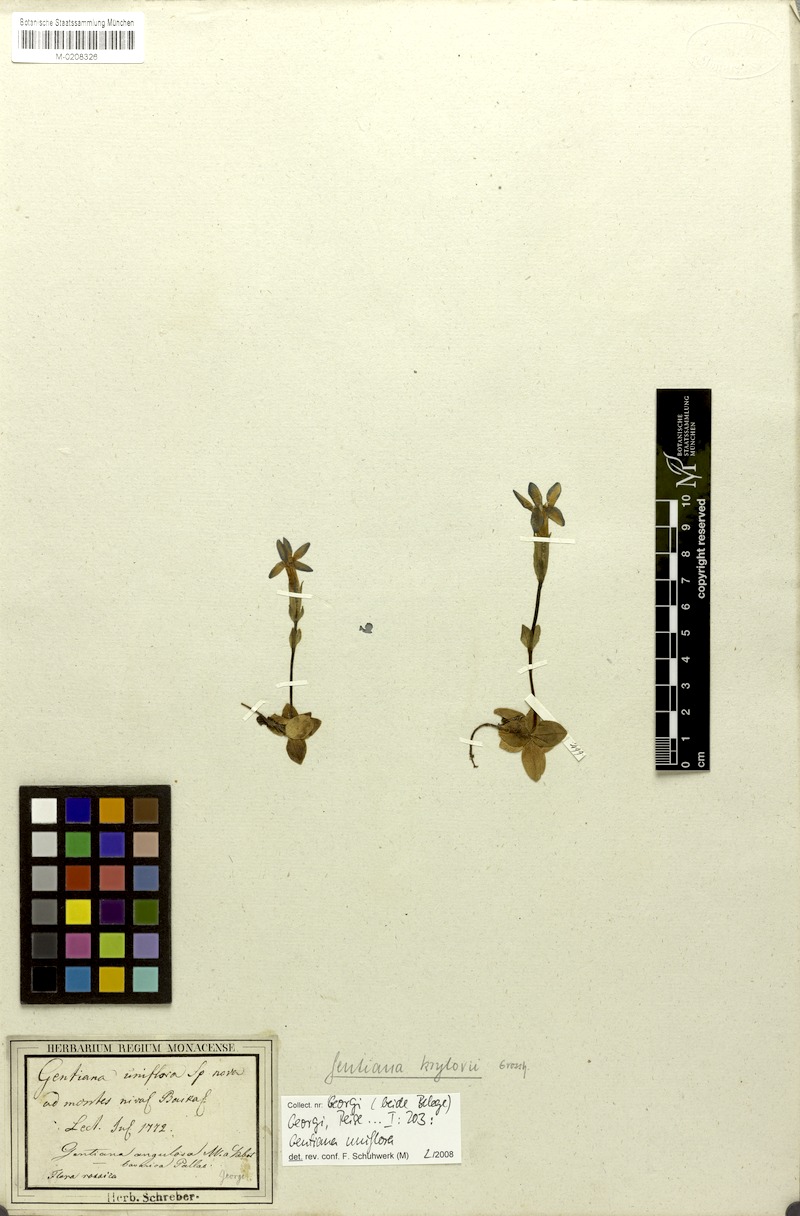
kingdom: Plantae
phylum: Tracheophyta
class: Magnoliopsida
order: Gentianales
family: Gentianaceae
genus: Gentiana
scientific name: Gentiana uniflora
